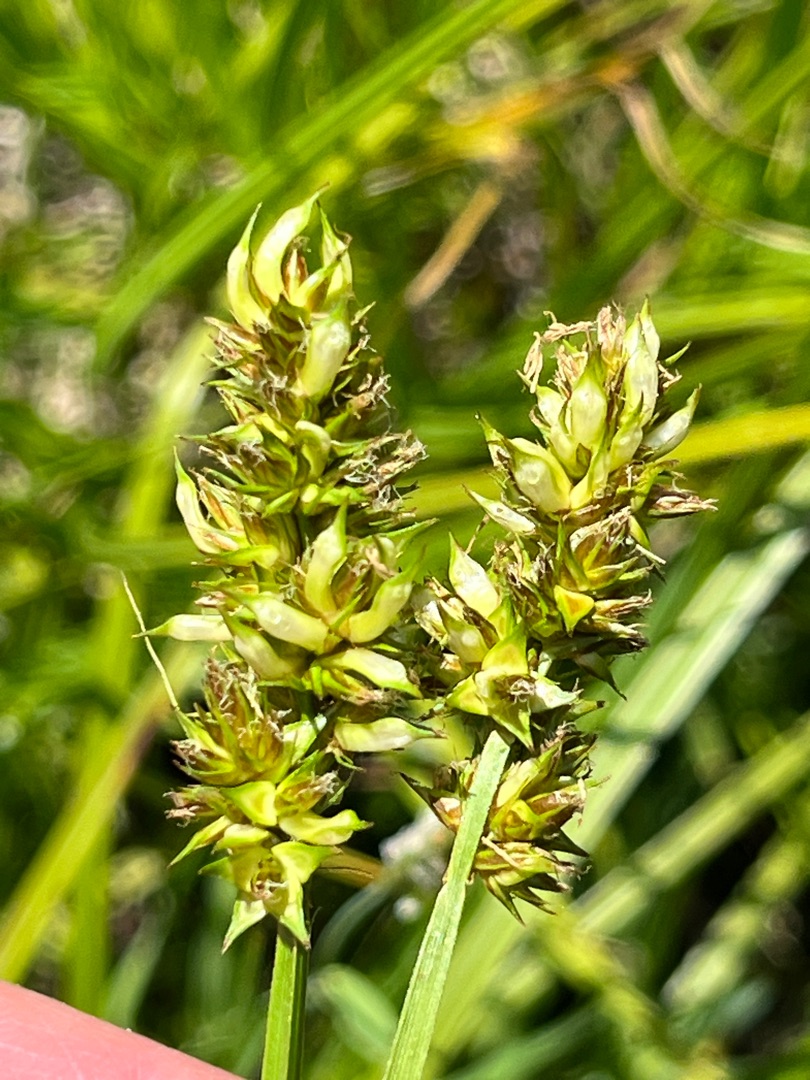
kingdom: Animalia
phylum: Arthropoda
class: Insecta
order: Diptera
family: Cecidomyiidae
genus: Dasineura
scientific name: Dasineura inflata
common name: Syltstargalmyg
